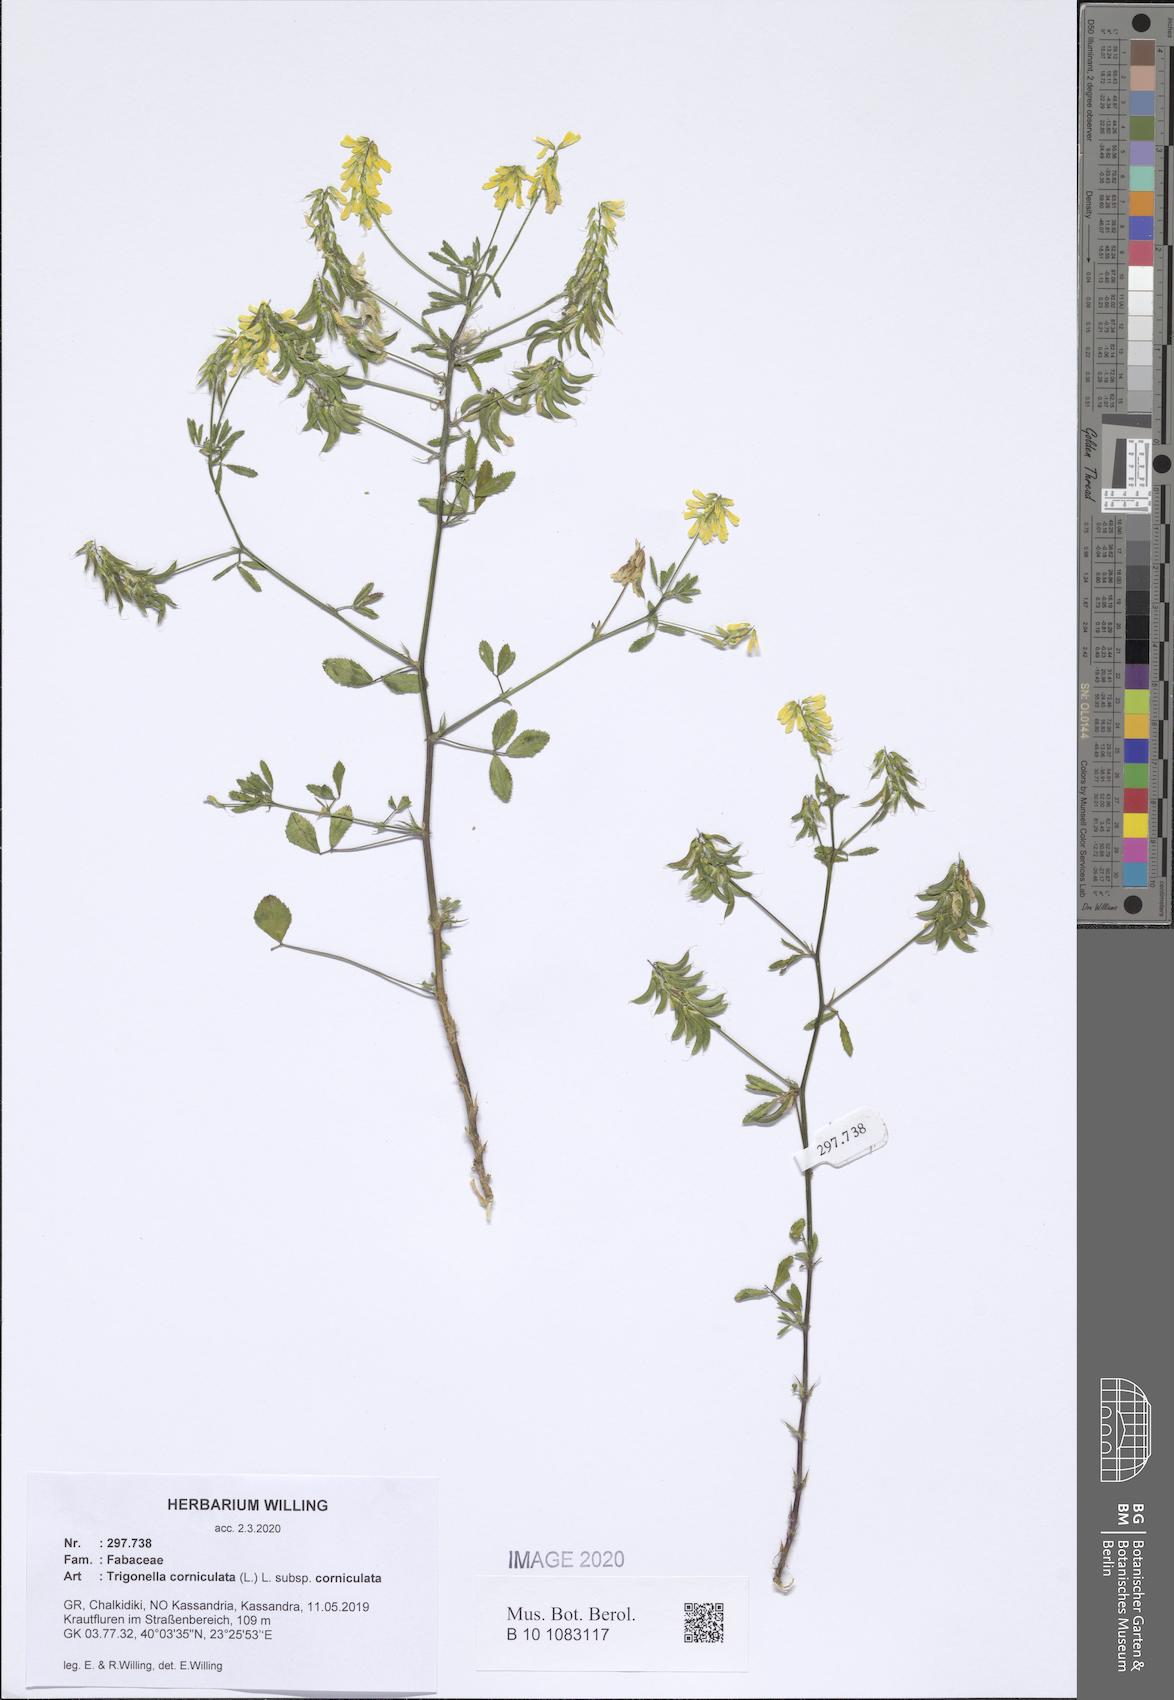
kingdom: Plantae
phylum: Tracheophyta
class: Magnoliopsida
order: Fabales
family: Fabaceae
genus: Trigonella
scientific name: Trigonella corniculata
